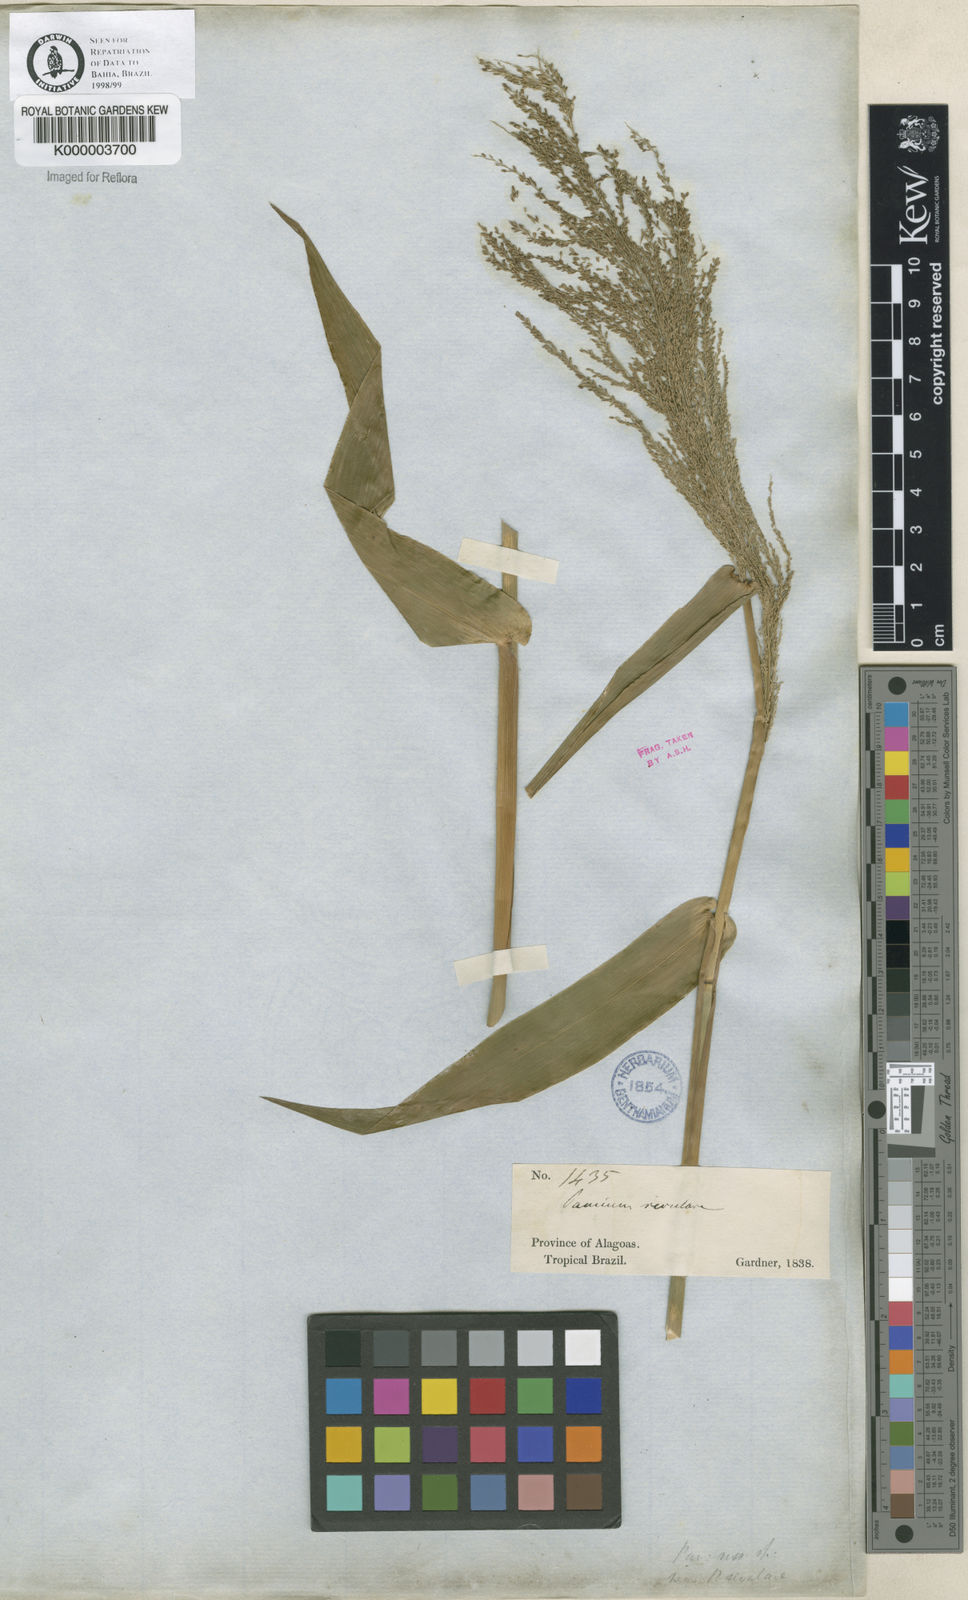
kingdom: Plantae
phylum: Tracheophyta
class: Liliopsida
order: Poales
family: Poaceae
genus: Rugoloa
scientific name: Rugoloa hylaeica
